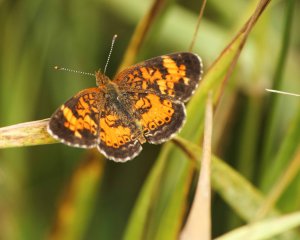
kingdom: Animalia
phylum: Arthropoda
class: Insecta
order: Lepidoptera
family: Nymphalidae
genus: Phyciodes
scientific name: Phyciodes tharos
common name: Northern Crescent
